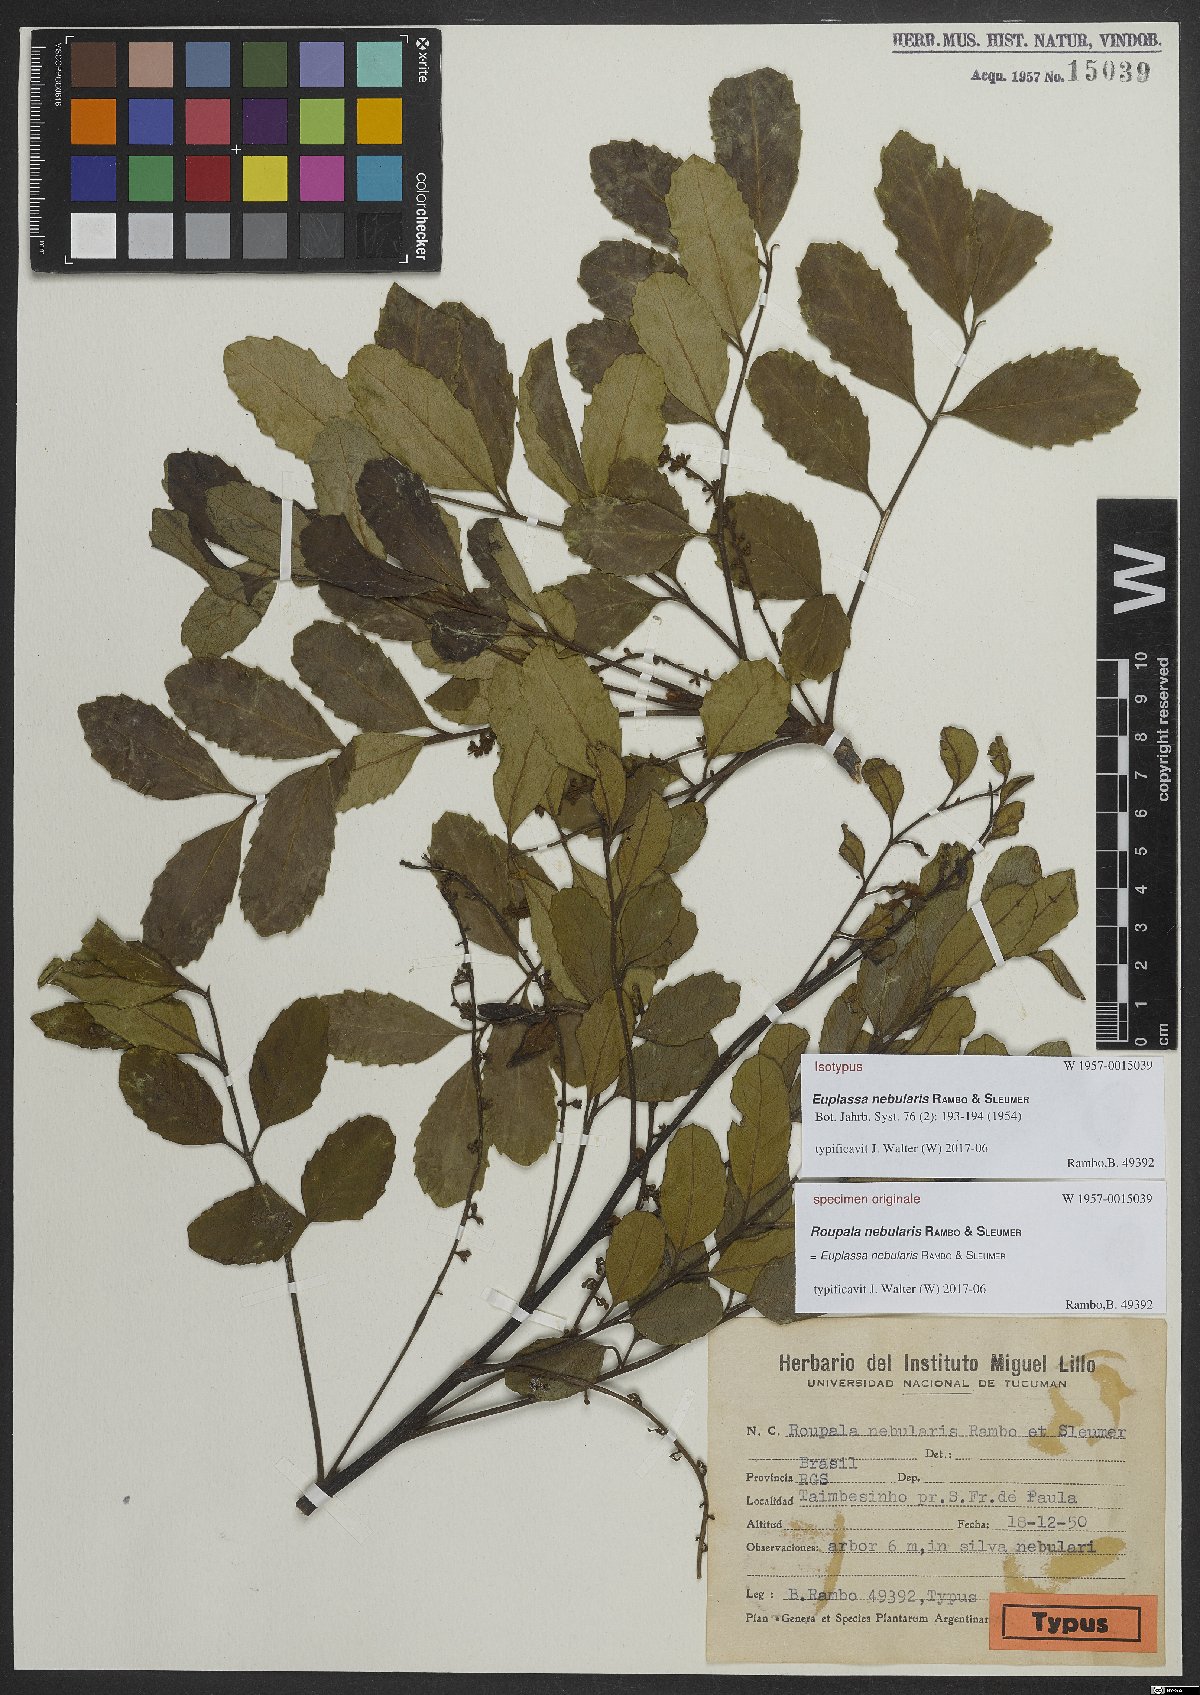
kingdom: Plantae
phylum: Tracheophyta
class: Magnoliopsida
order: Proteales
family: Proteaceae
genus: Euplassa
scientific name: Euplassa nebularis
